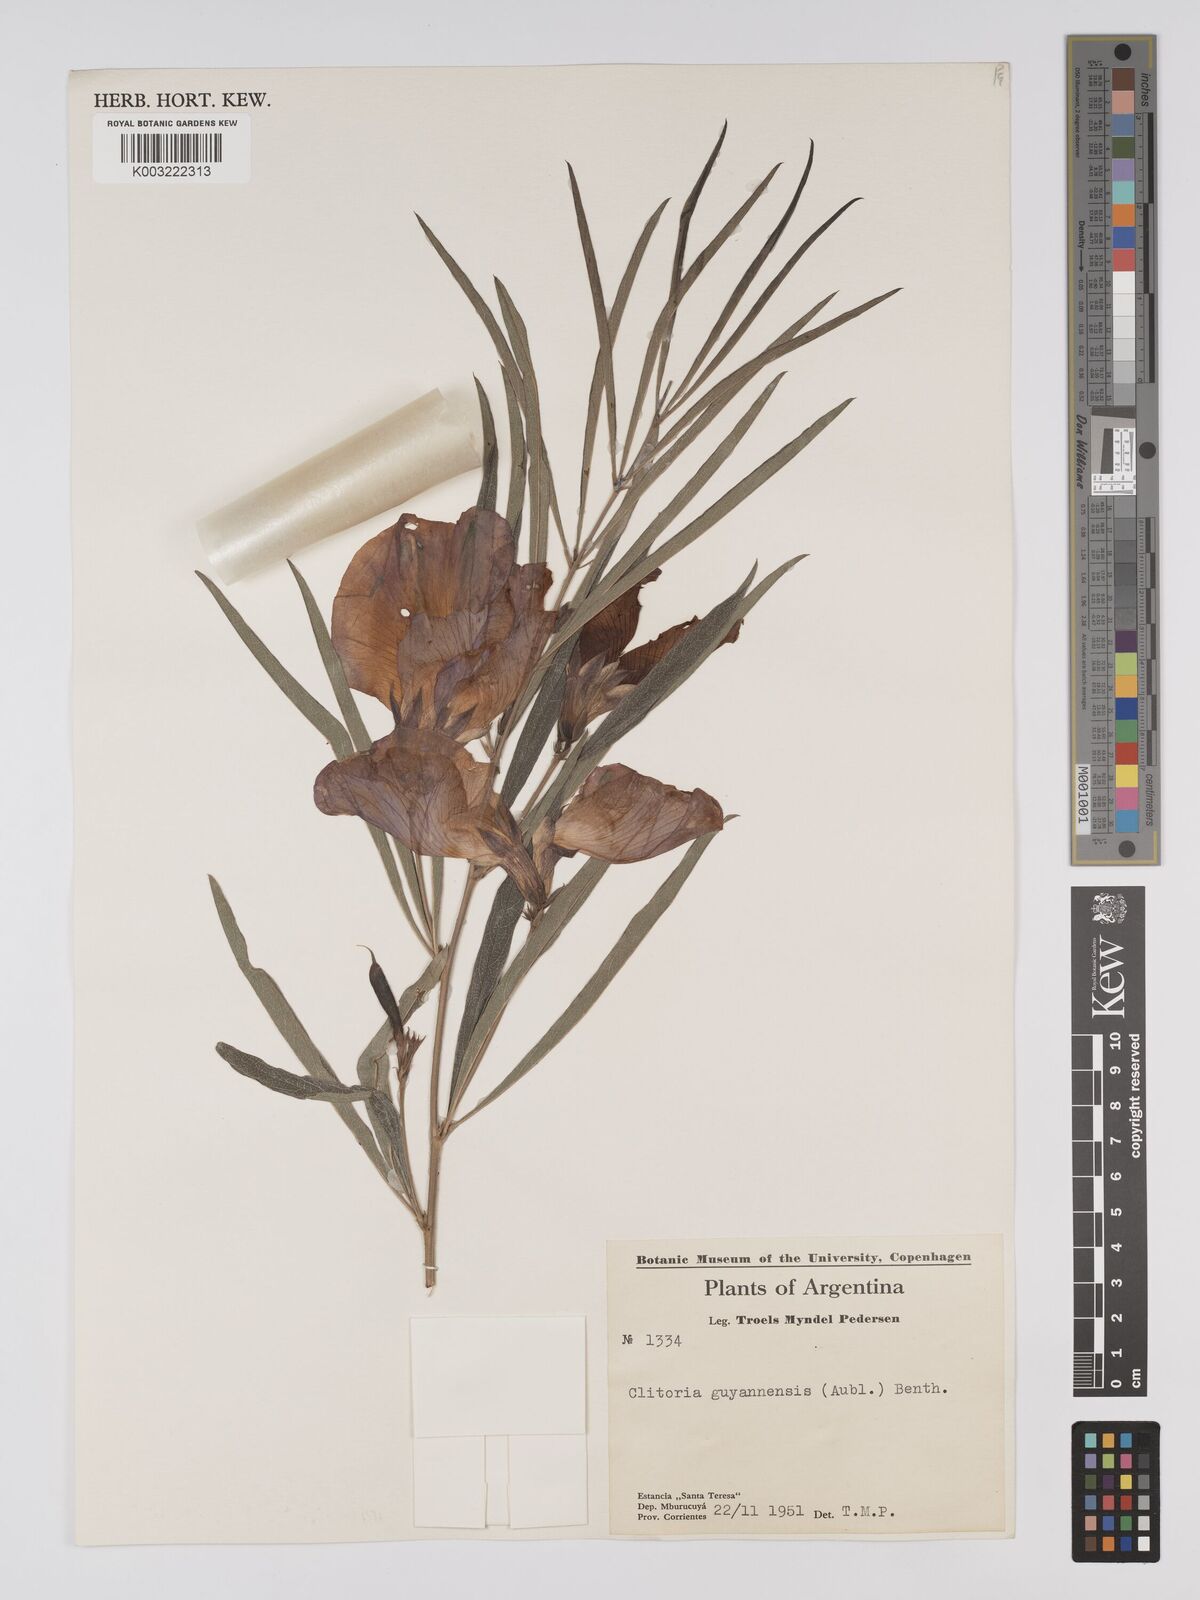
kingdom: Plantae
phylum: Tracheophyta
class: Magnoliopsida
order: Fabales
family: Fabaceae
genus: Clitoria
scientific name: Clitoria
